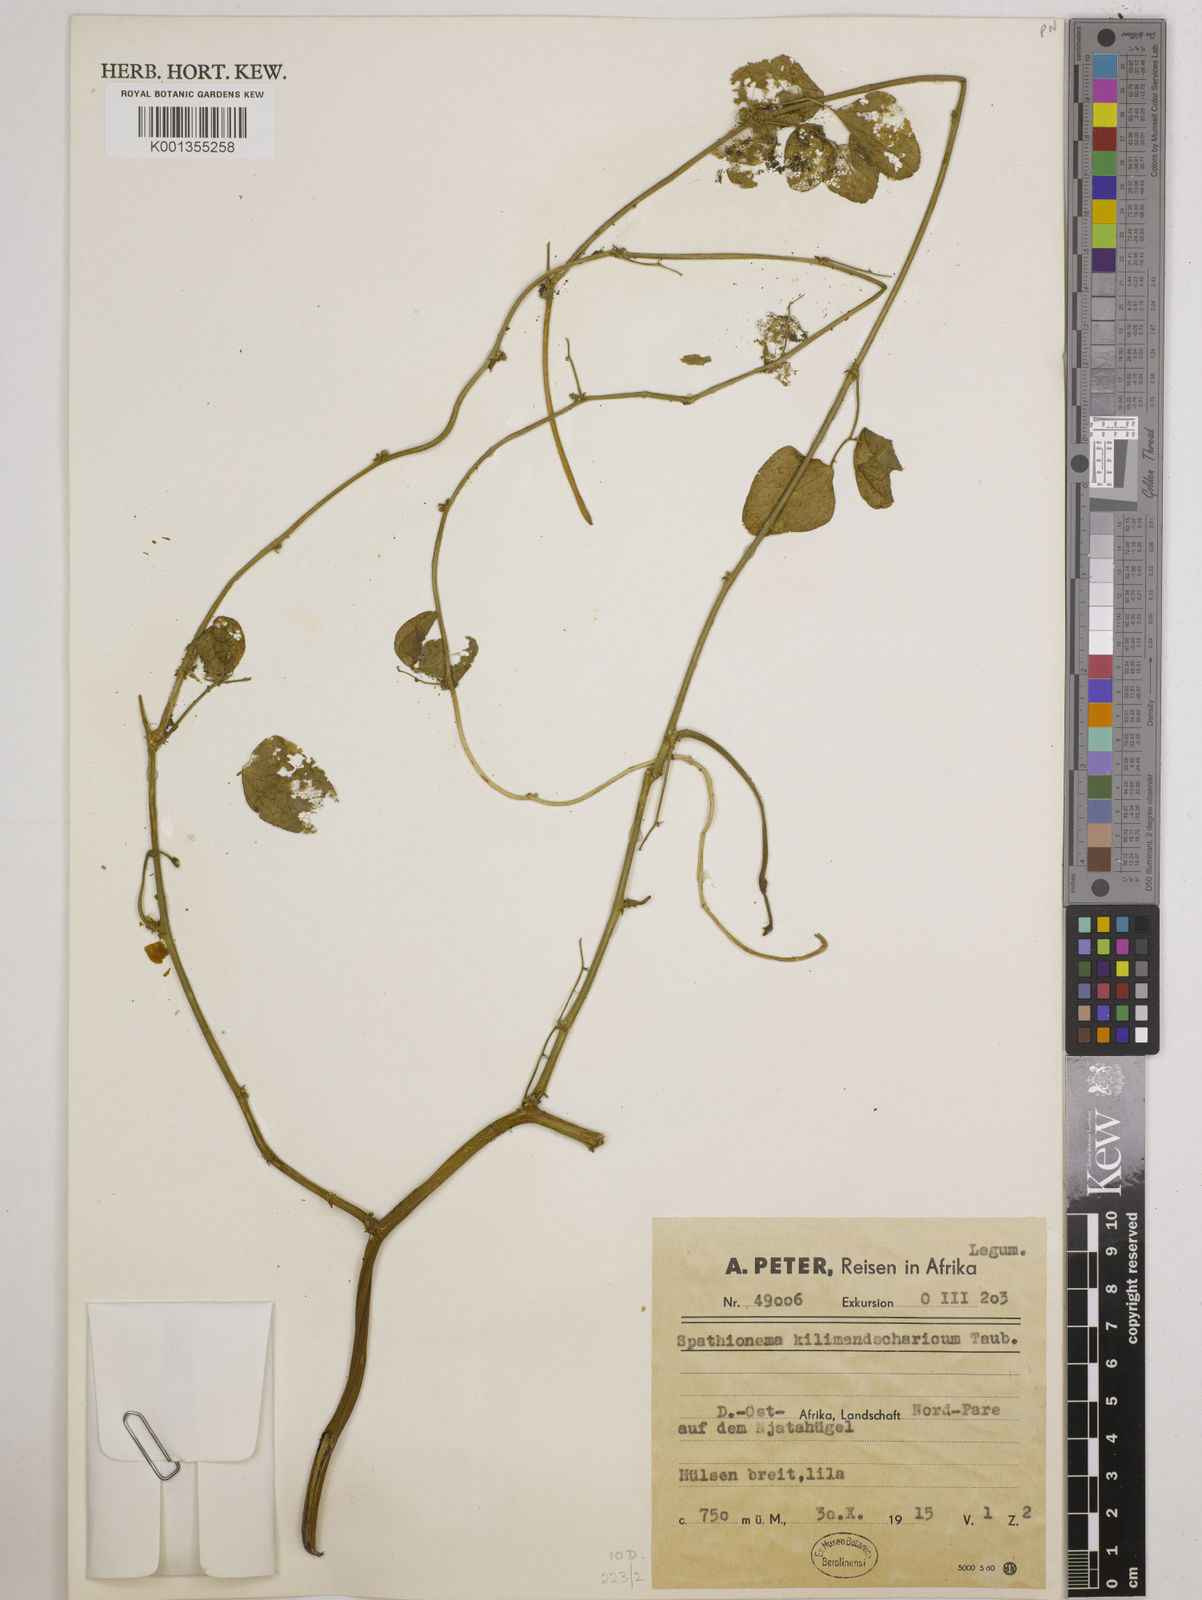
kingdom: Plantae
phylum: Tracheophyta
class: Magnoliopsida
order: Fabales
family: Fabaceae
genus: Spathionema
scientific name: Spathionema kilimandscharicum
